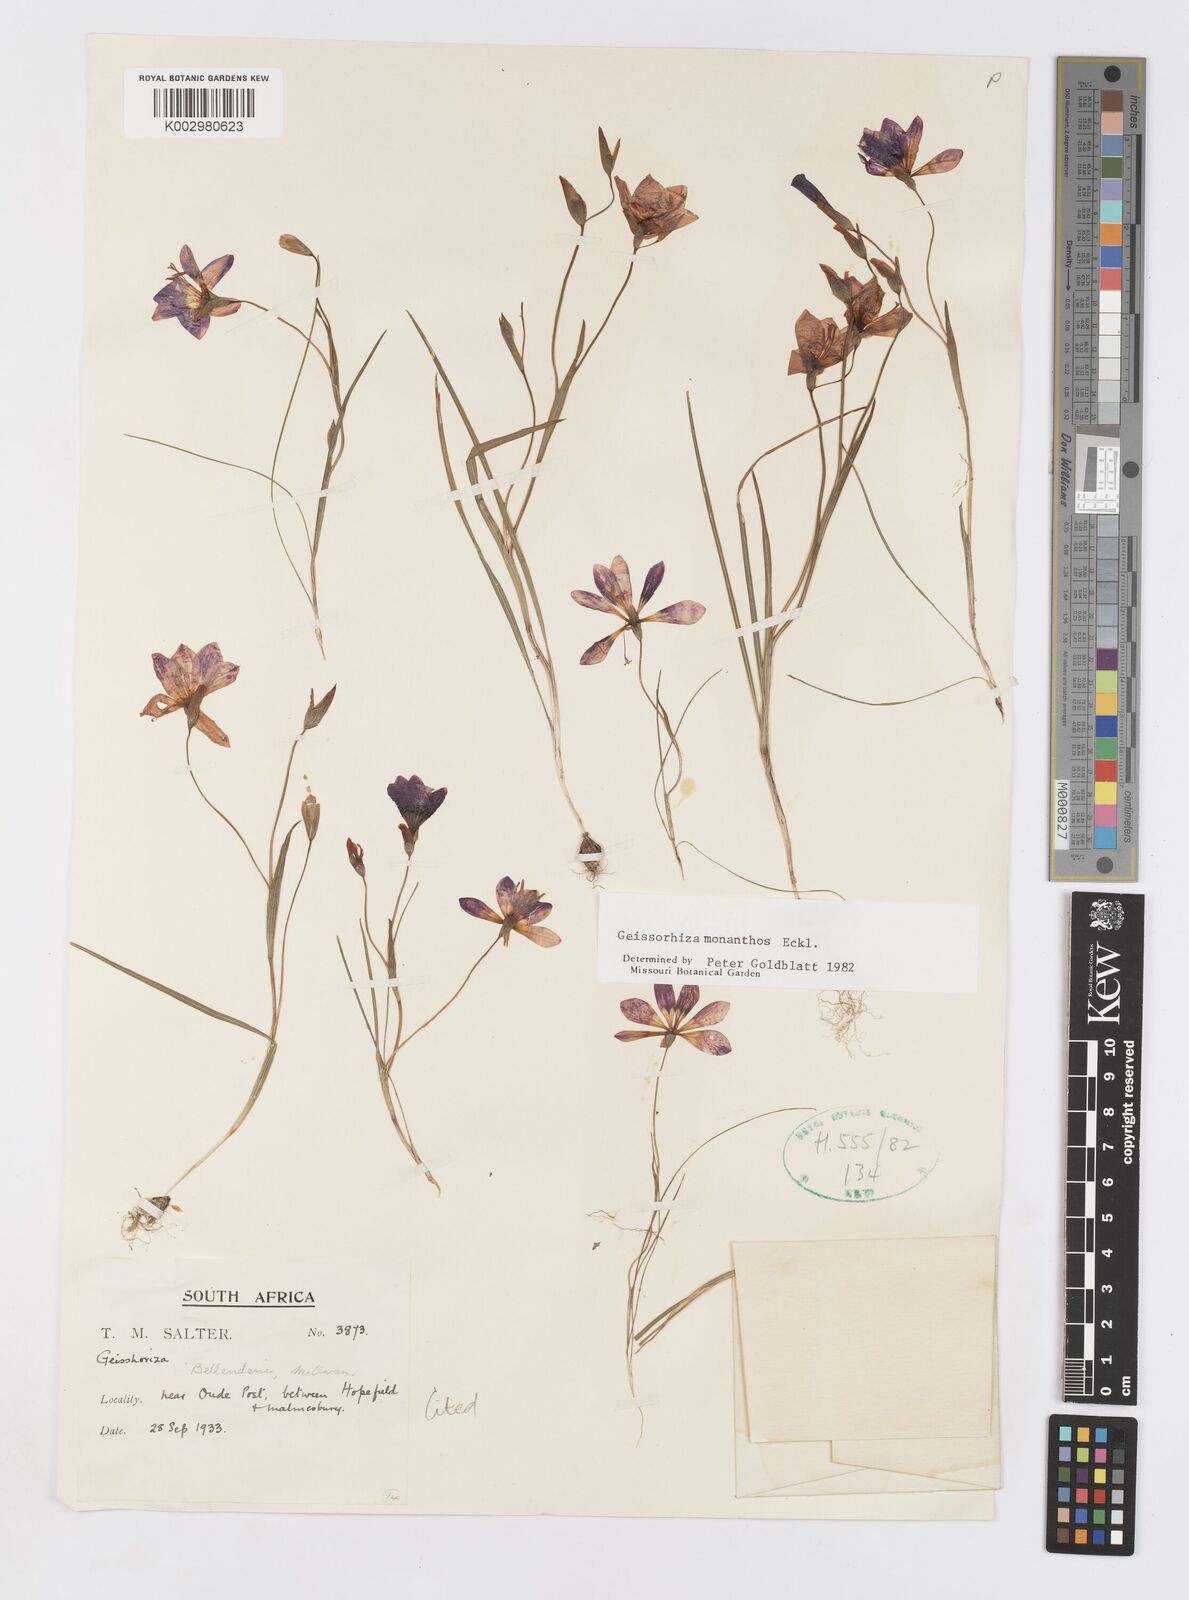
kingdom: Plantae
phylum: Tracheophyta
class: Liliopsida
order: Asparagales
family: Iridaceae
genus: Geissorhiza
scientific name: Geissorhiza monanthos
